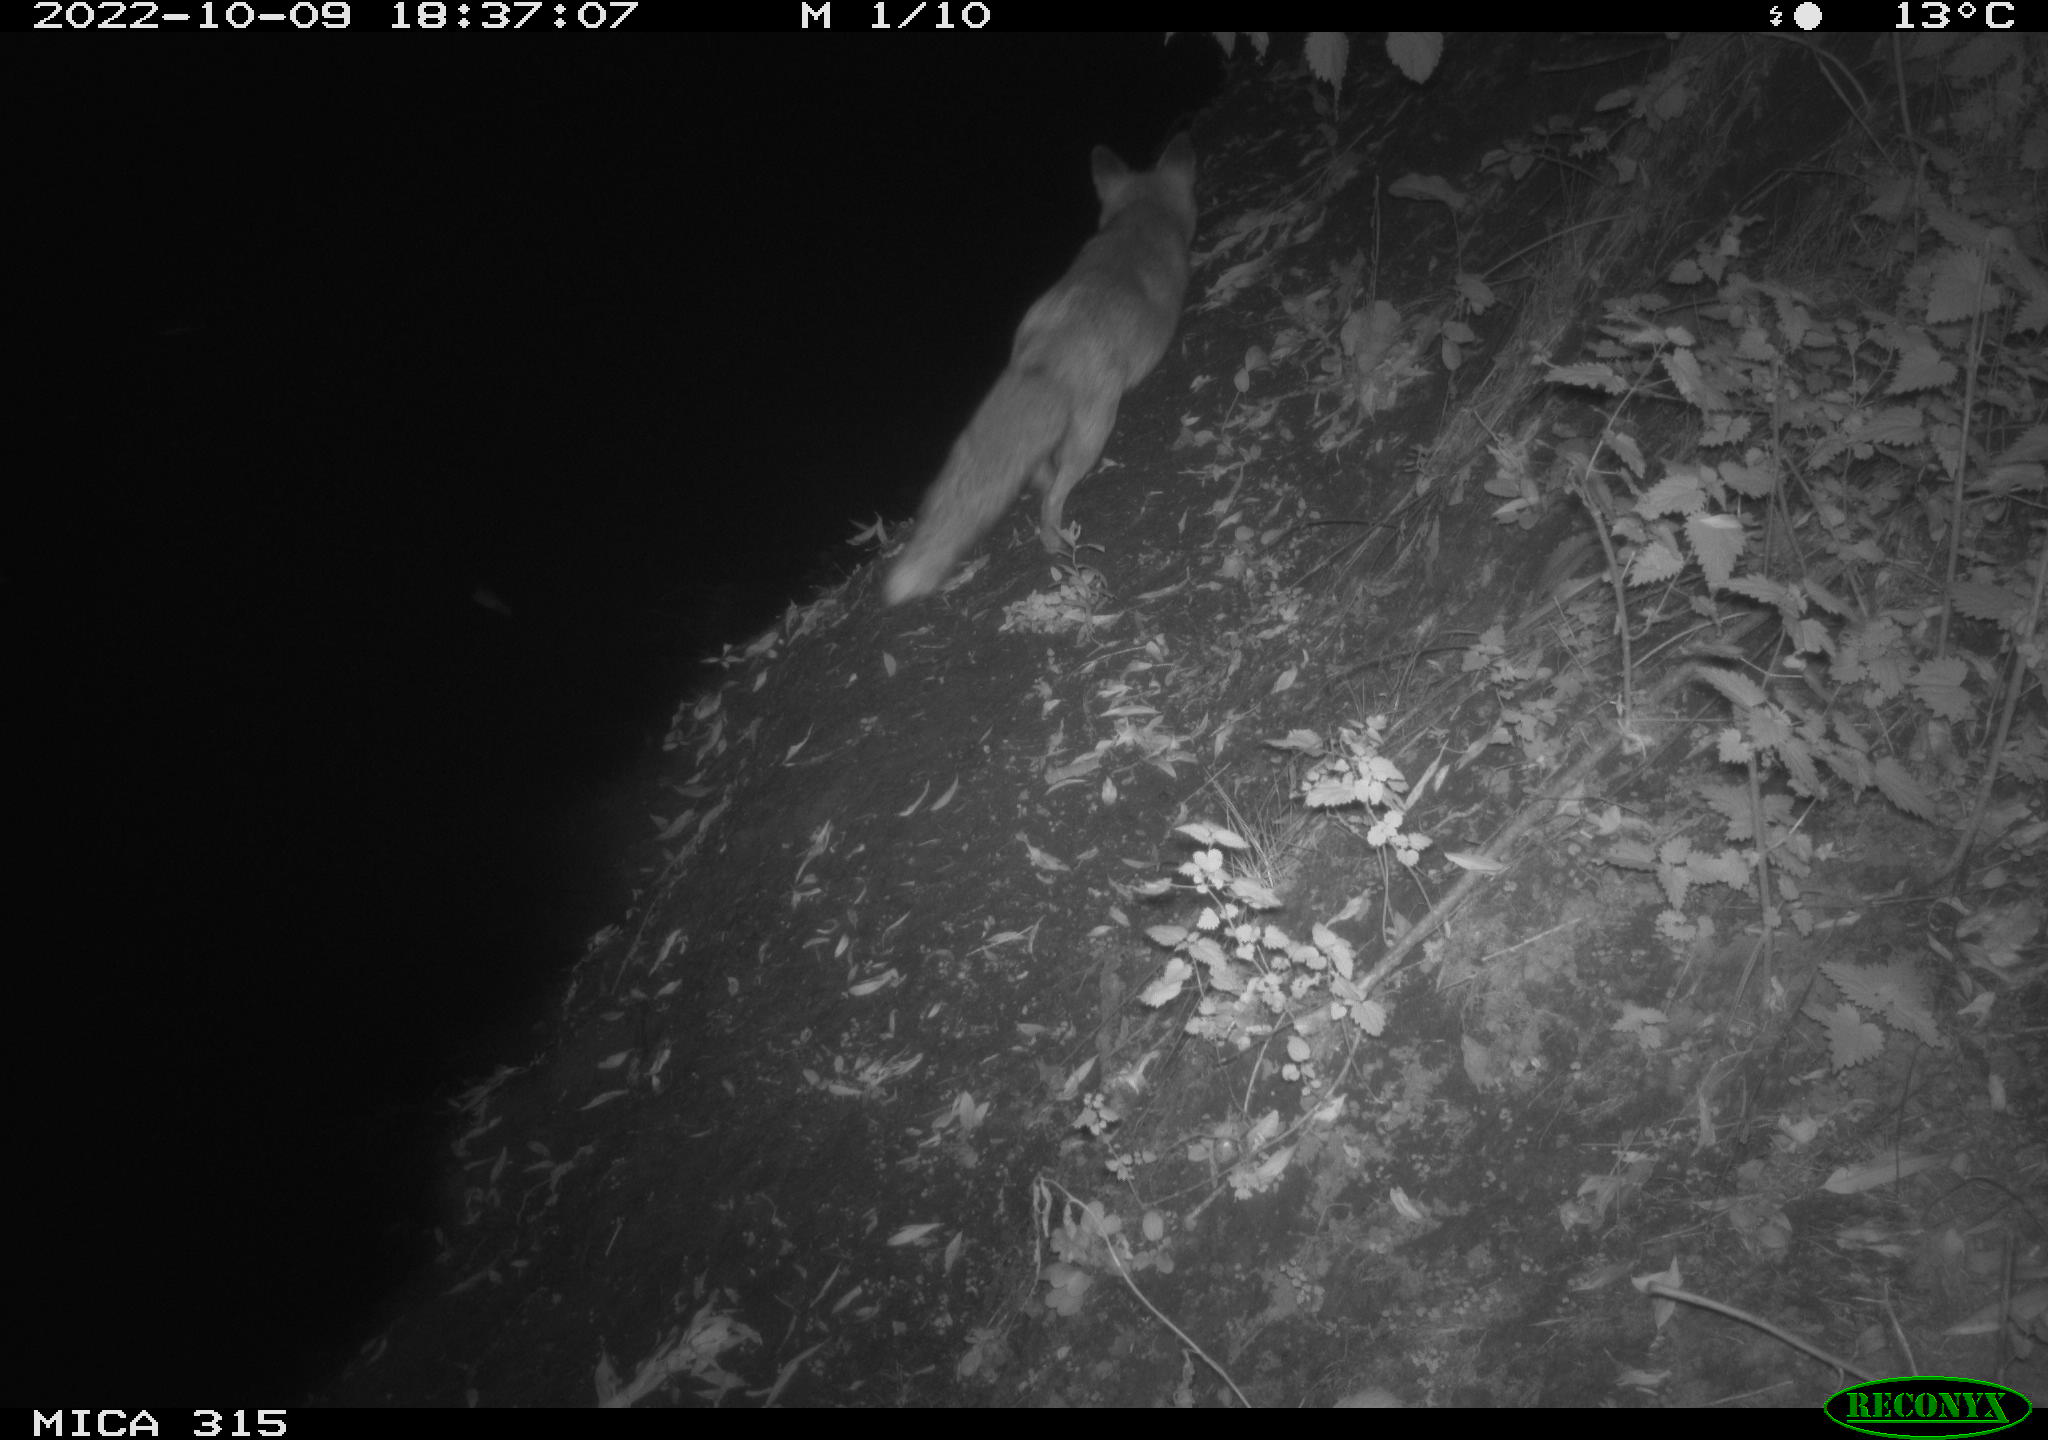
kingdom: Animalia
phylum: Chordata
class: Mammalia
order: Carnivora
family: Canidae
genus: Vulpes
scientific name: Vulpes vulpes
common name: Red fox
